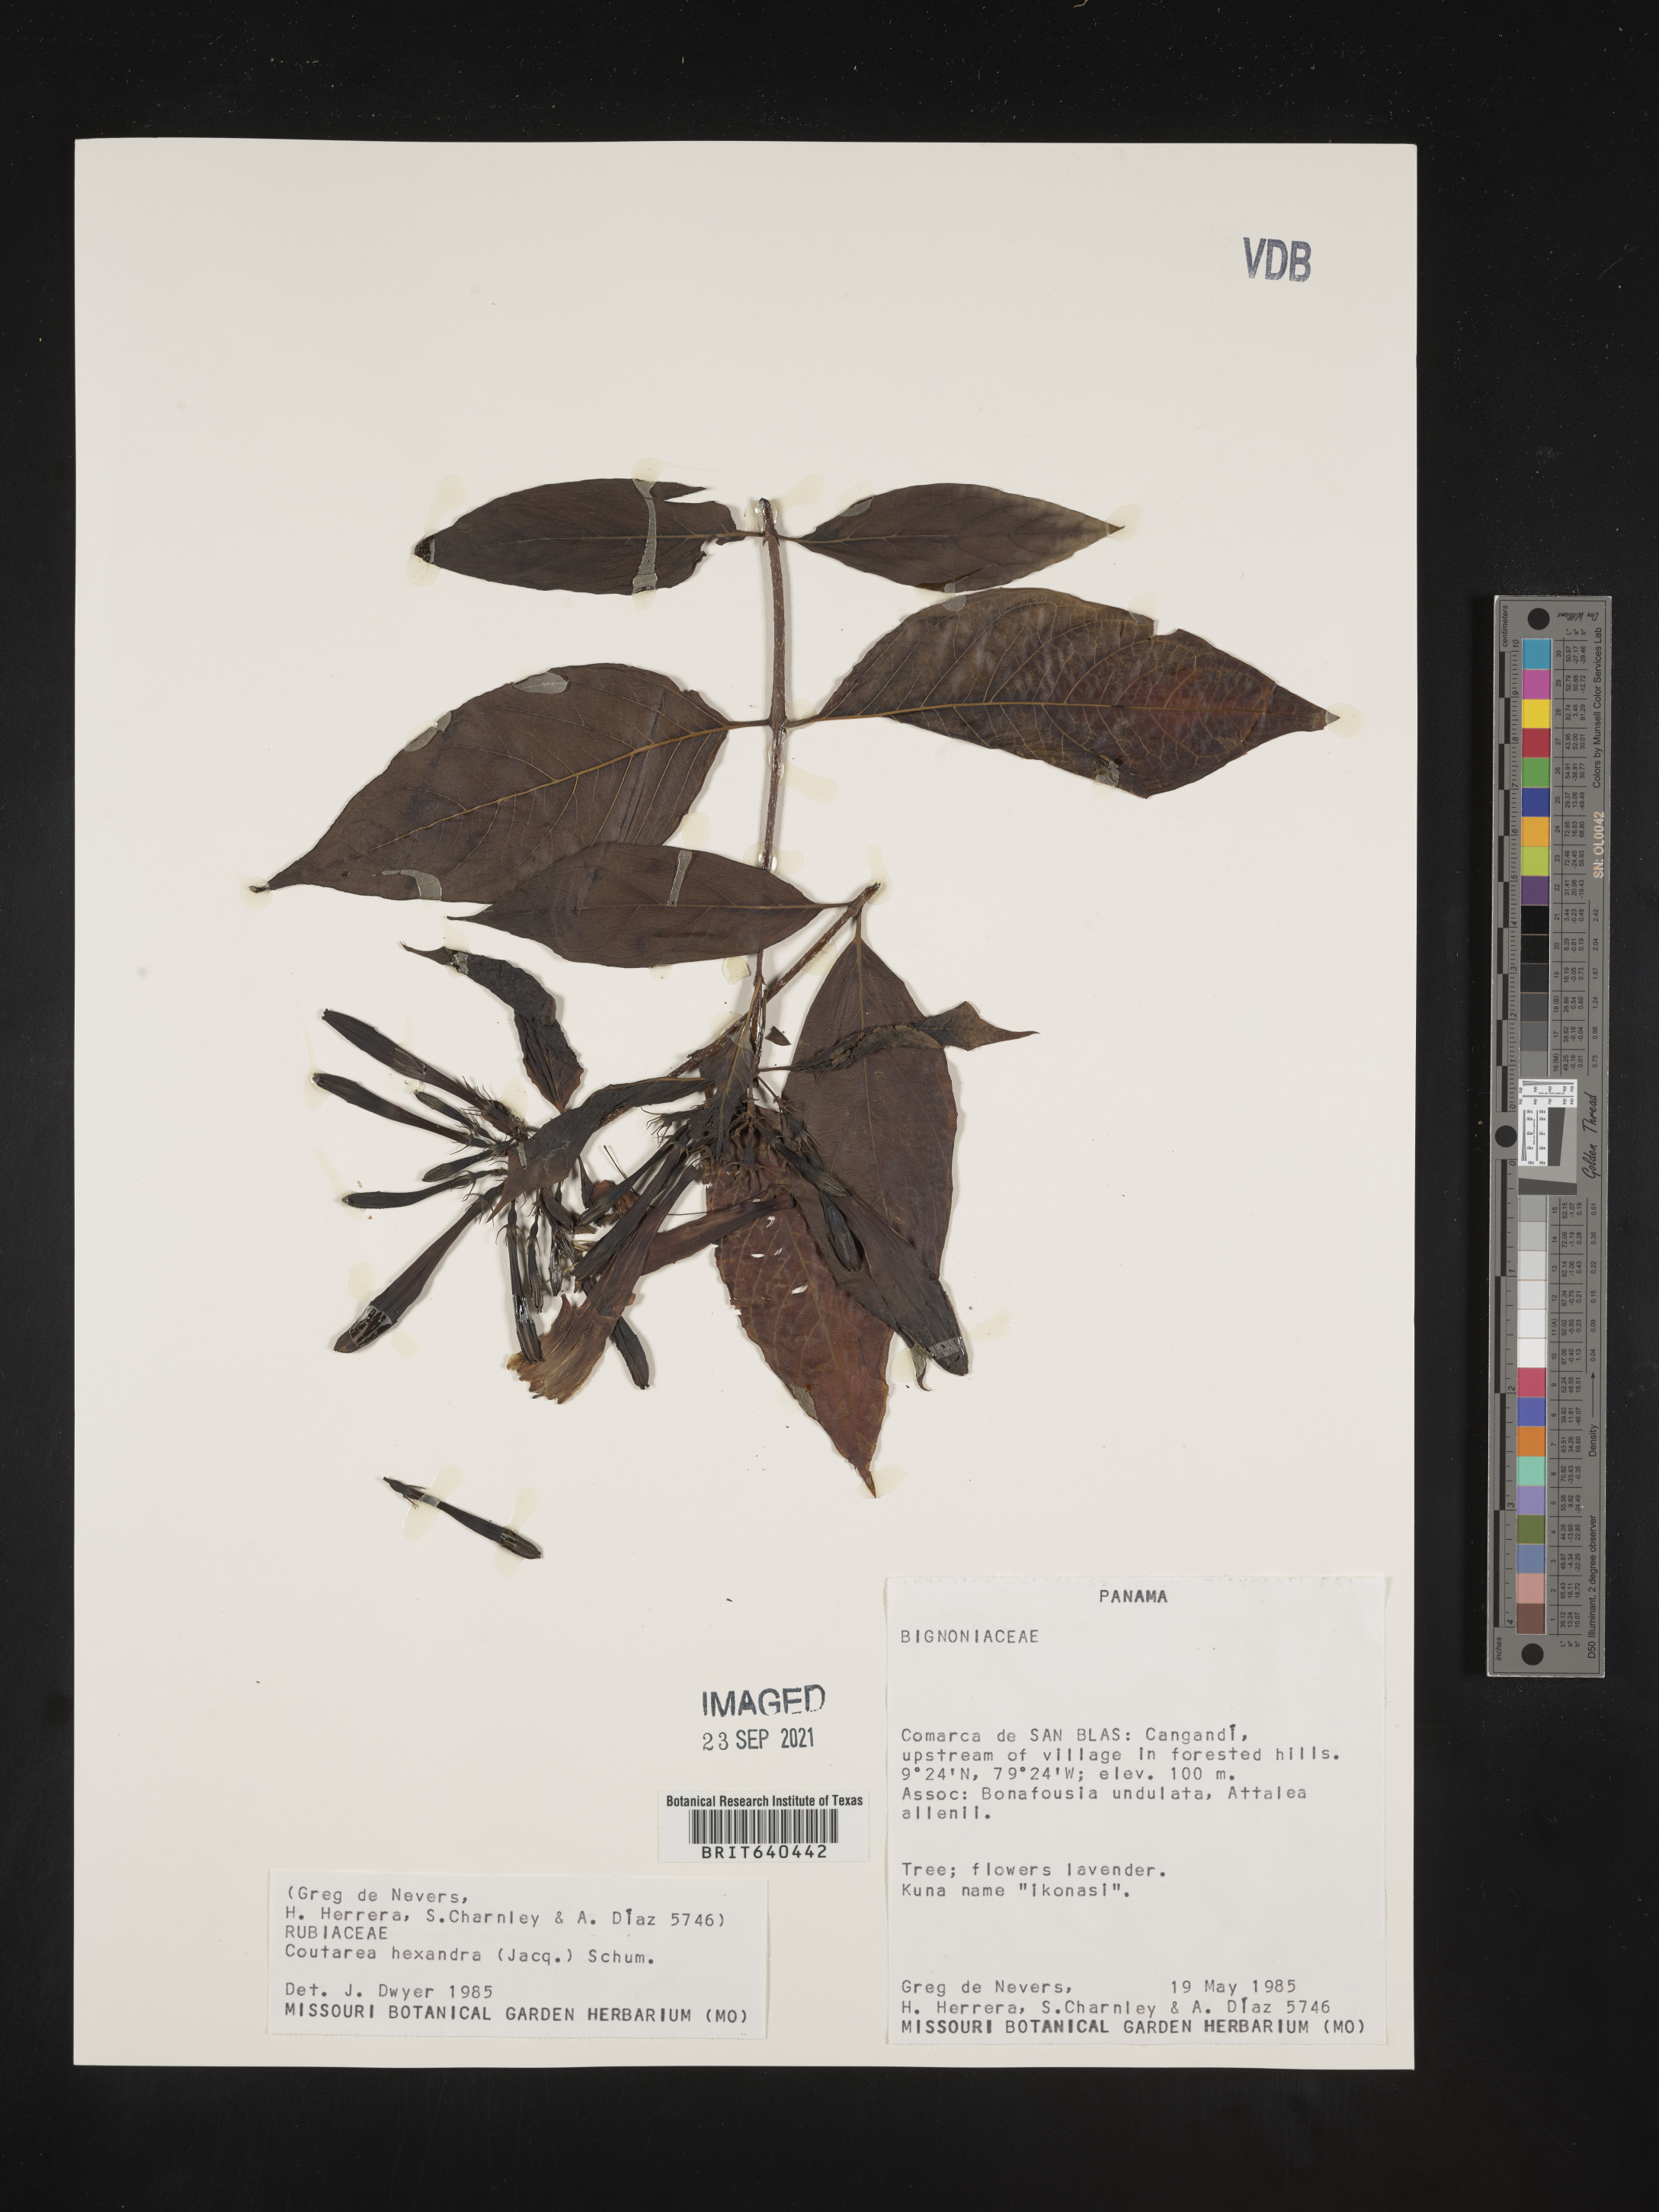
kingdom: Plantae
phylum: Tracheophyta
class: Magnoliopsida
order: Gentianales
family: Rubiaceae
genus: Coutarea
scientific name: Coutarea
